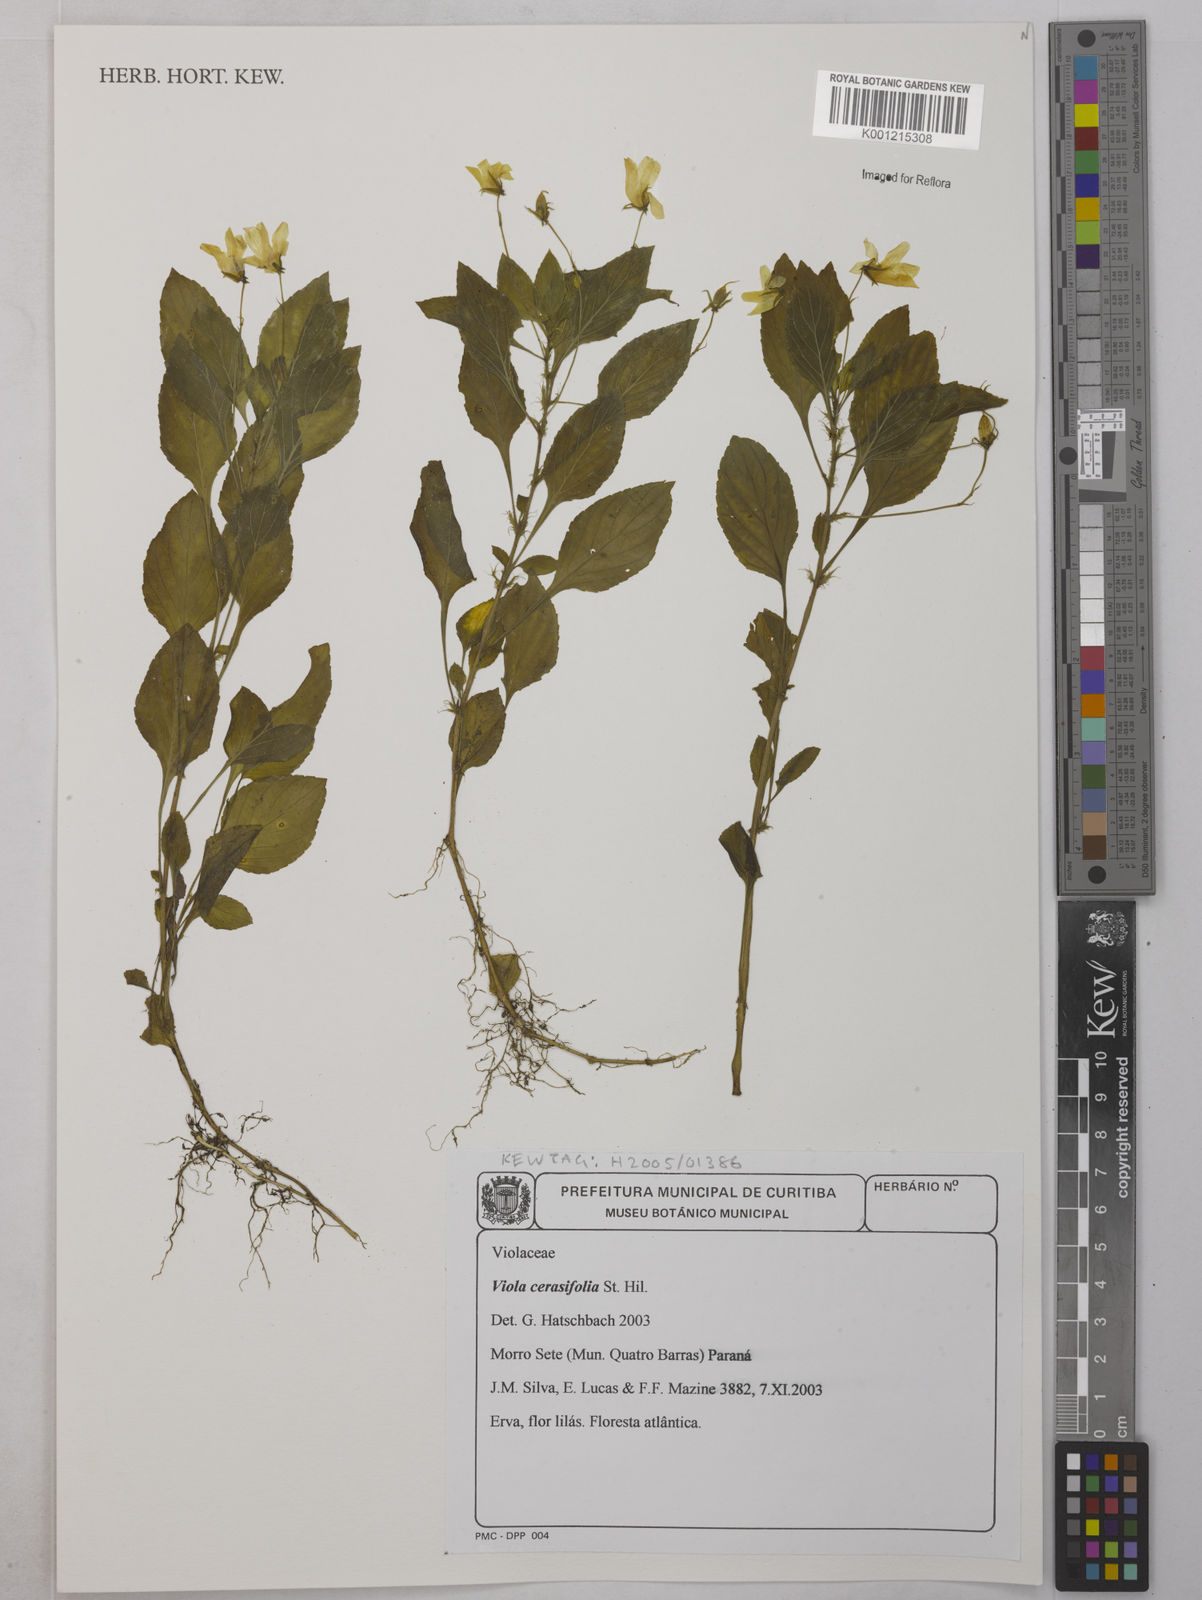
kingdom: Plantae
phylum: Tracheophyta
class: Magnoliopsida
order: Malpighiales
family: Violaceae
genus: Viola
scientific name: Viola cerasifolia
